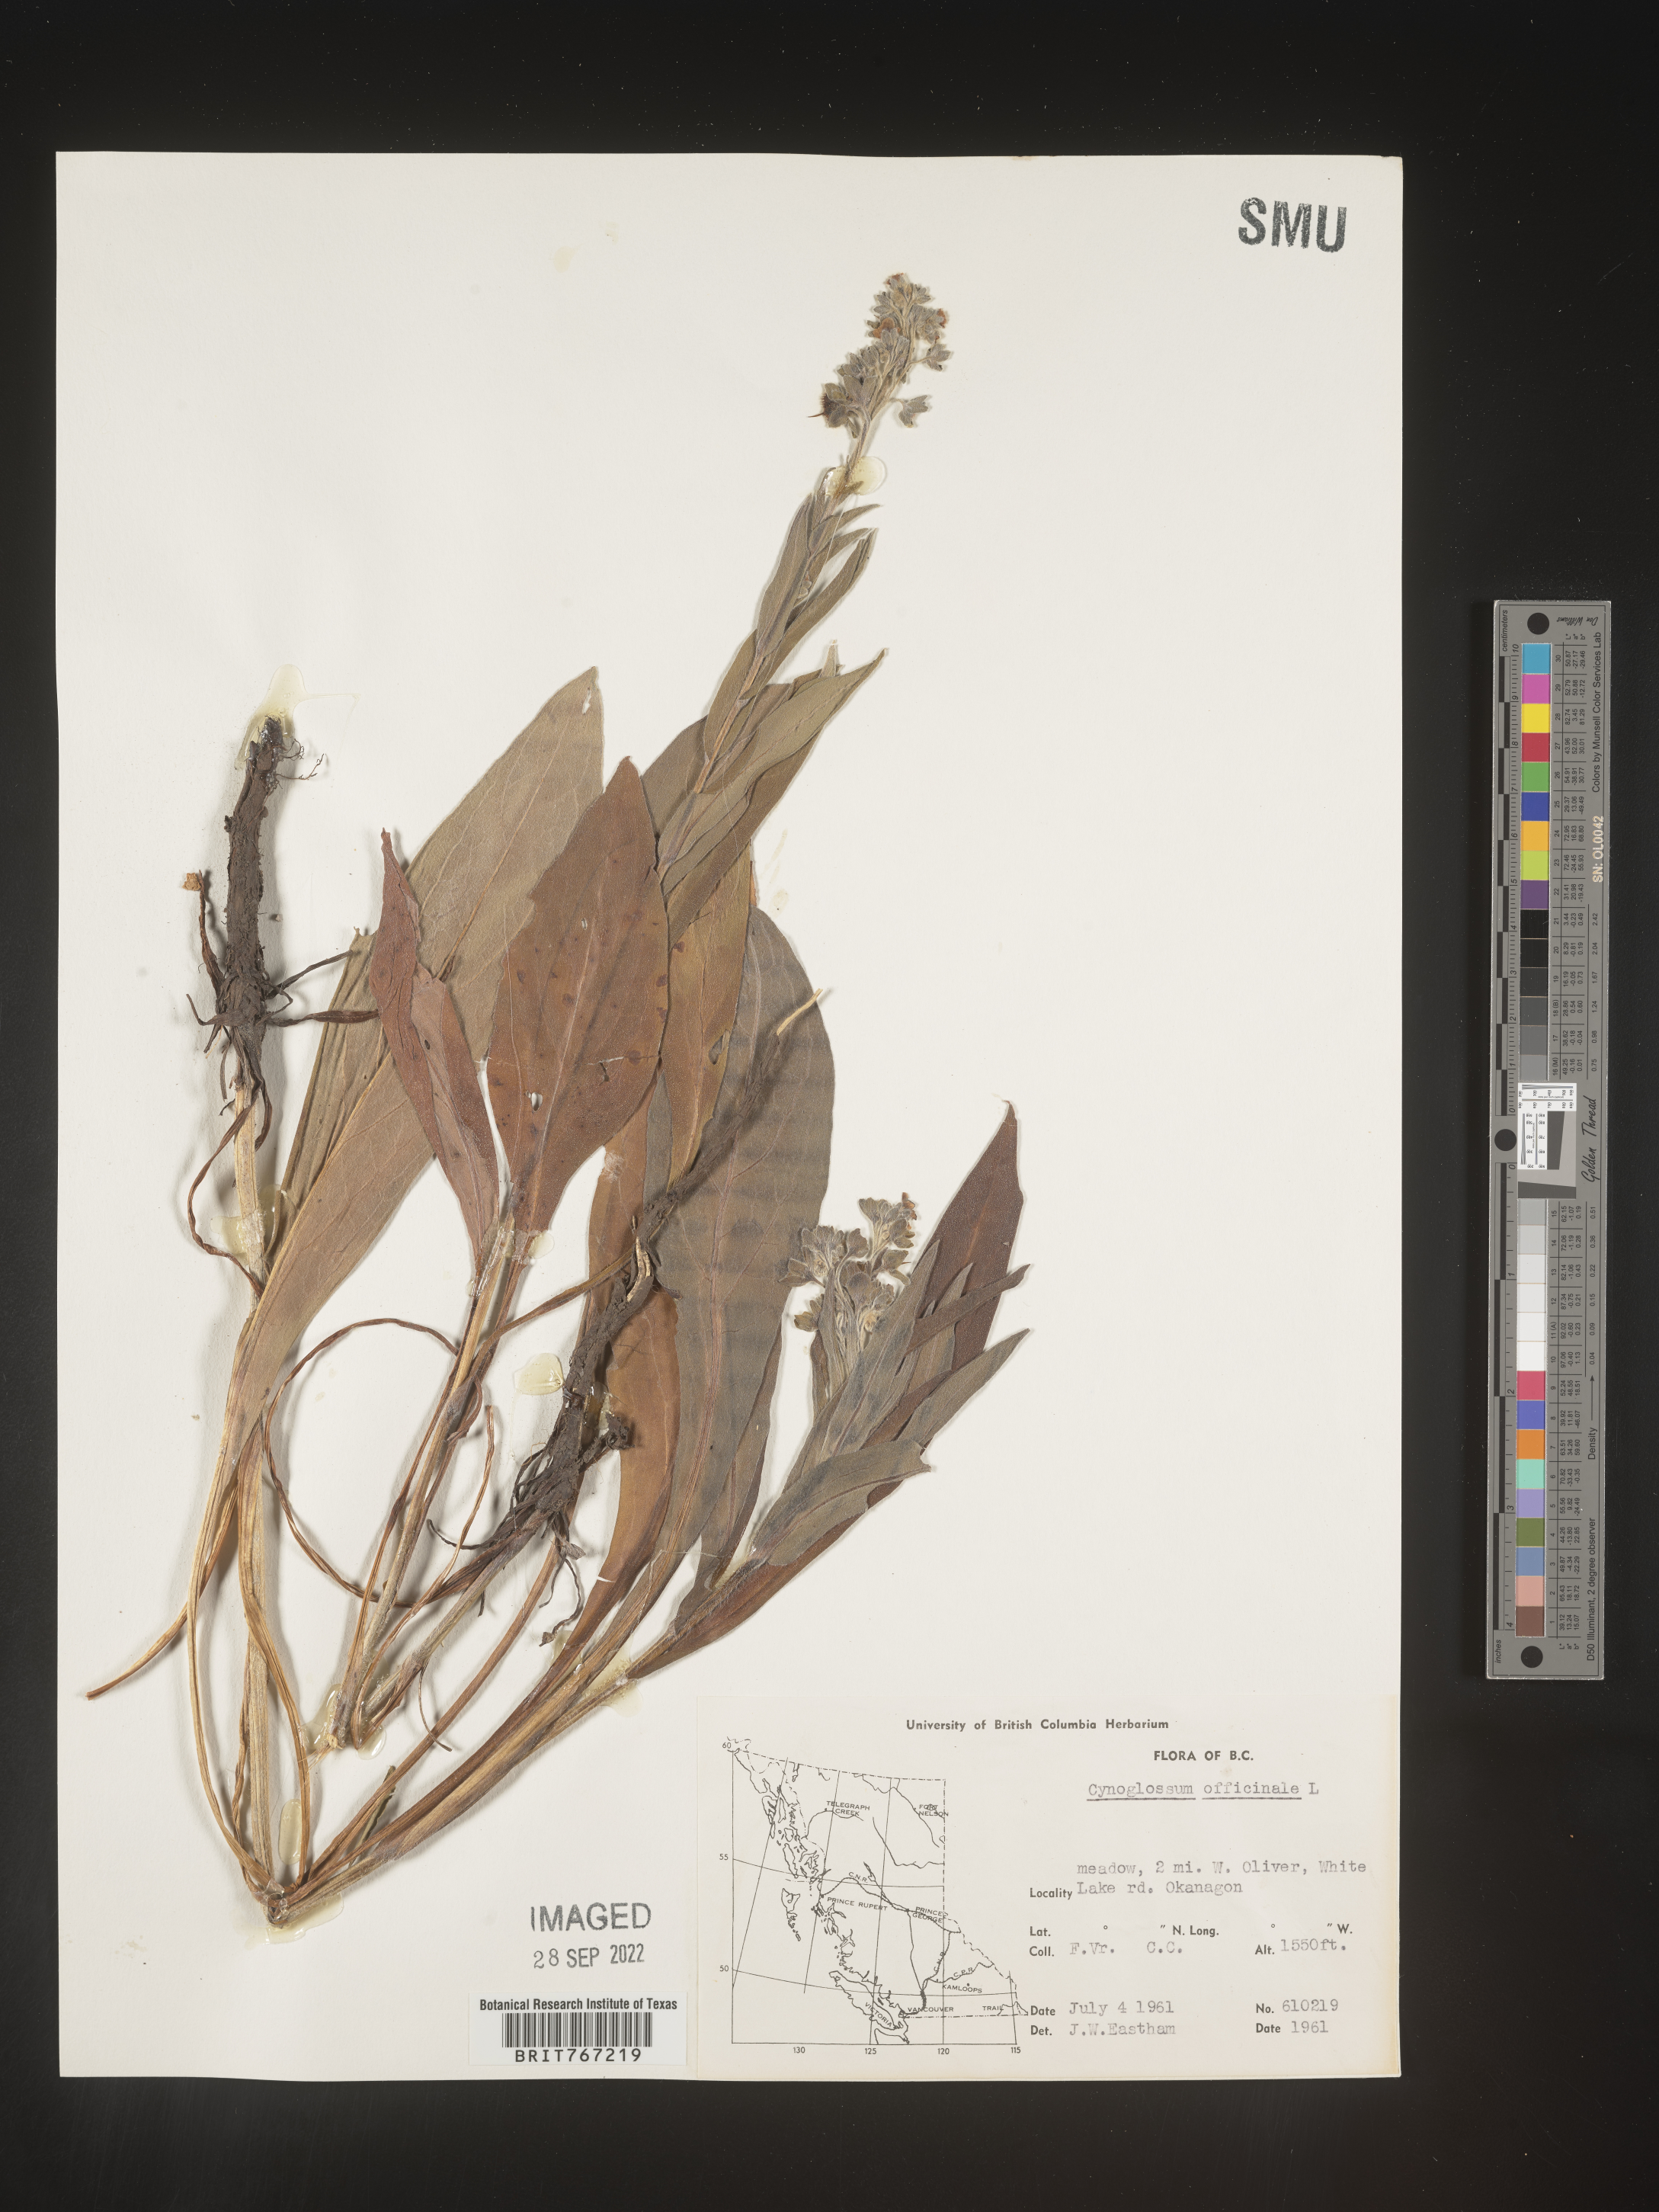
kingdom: Plantae
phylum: Tracheophyta
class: Magnoliopsida
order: Boraginales
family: Boraginaceae
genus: Cynoglossum
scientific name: Cynoglossum officinale
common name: Hound's-tongue
